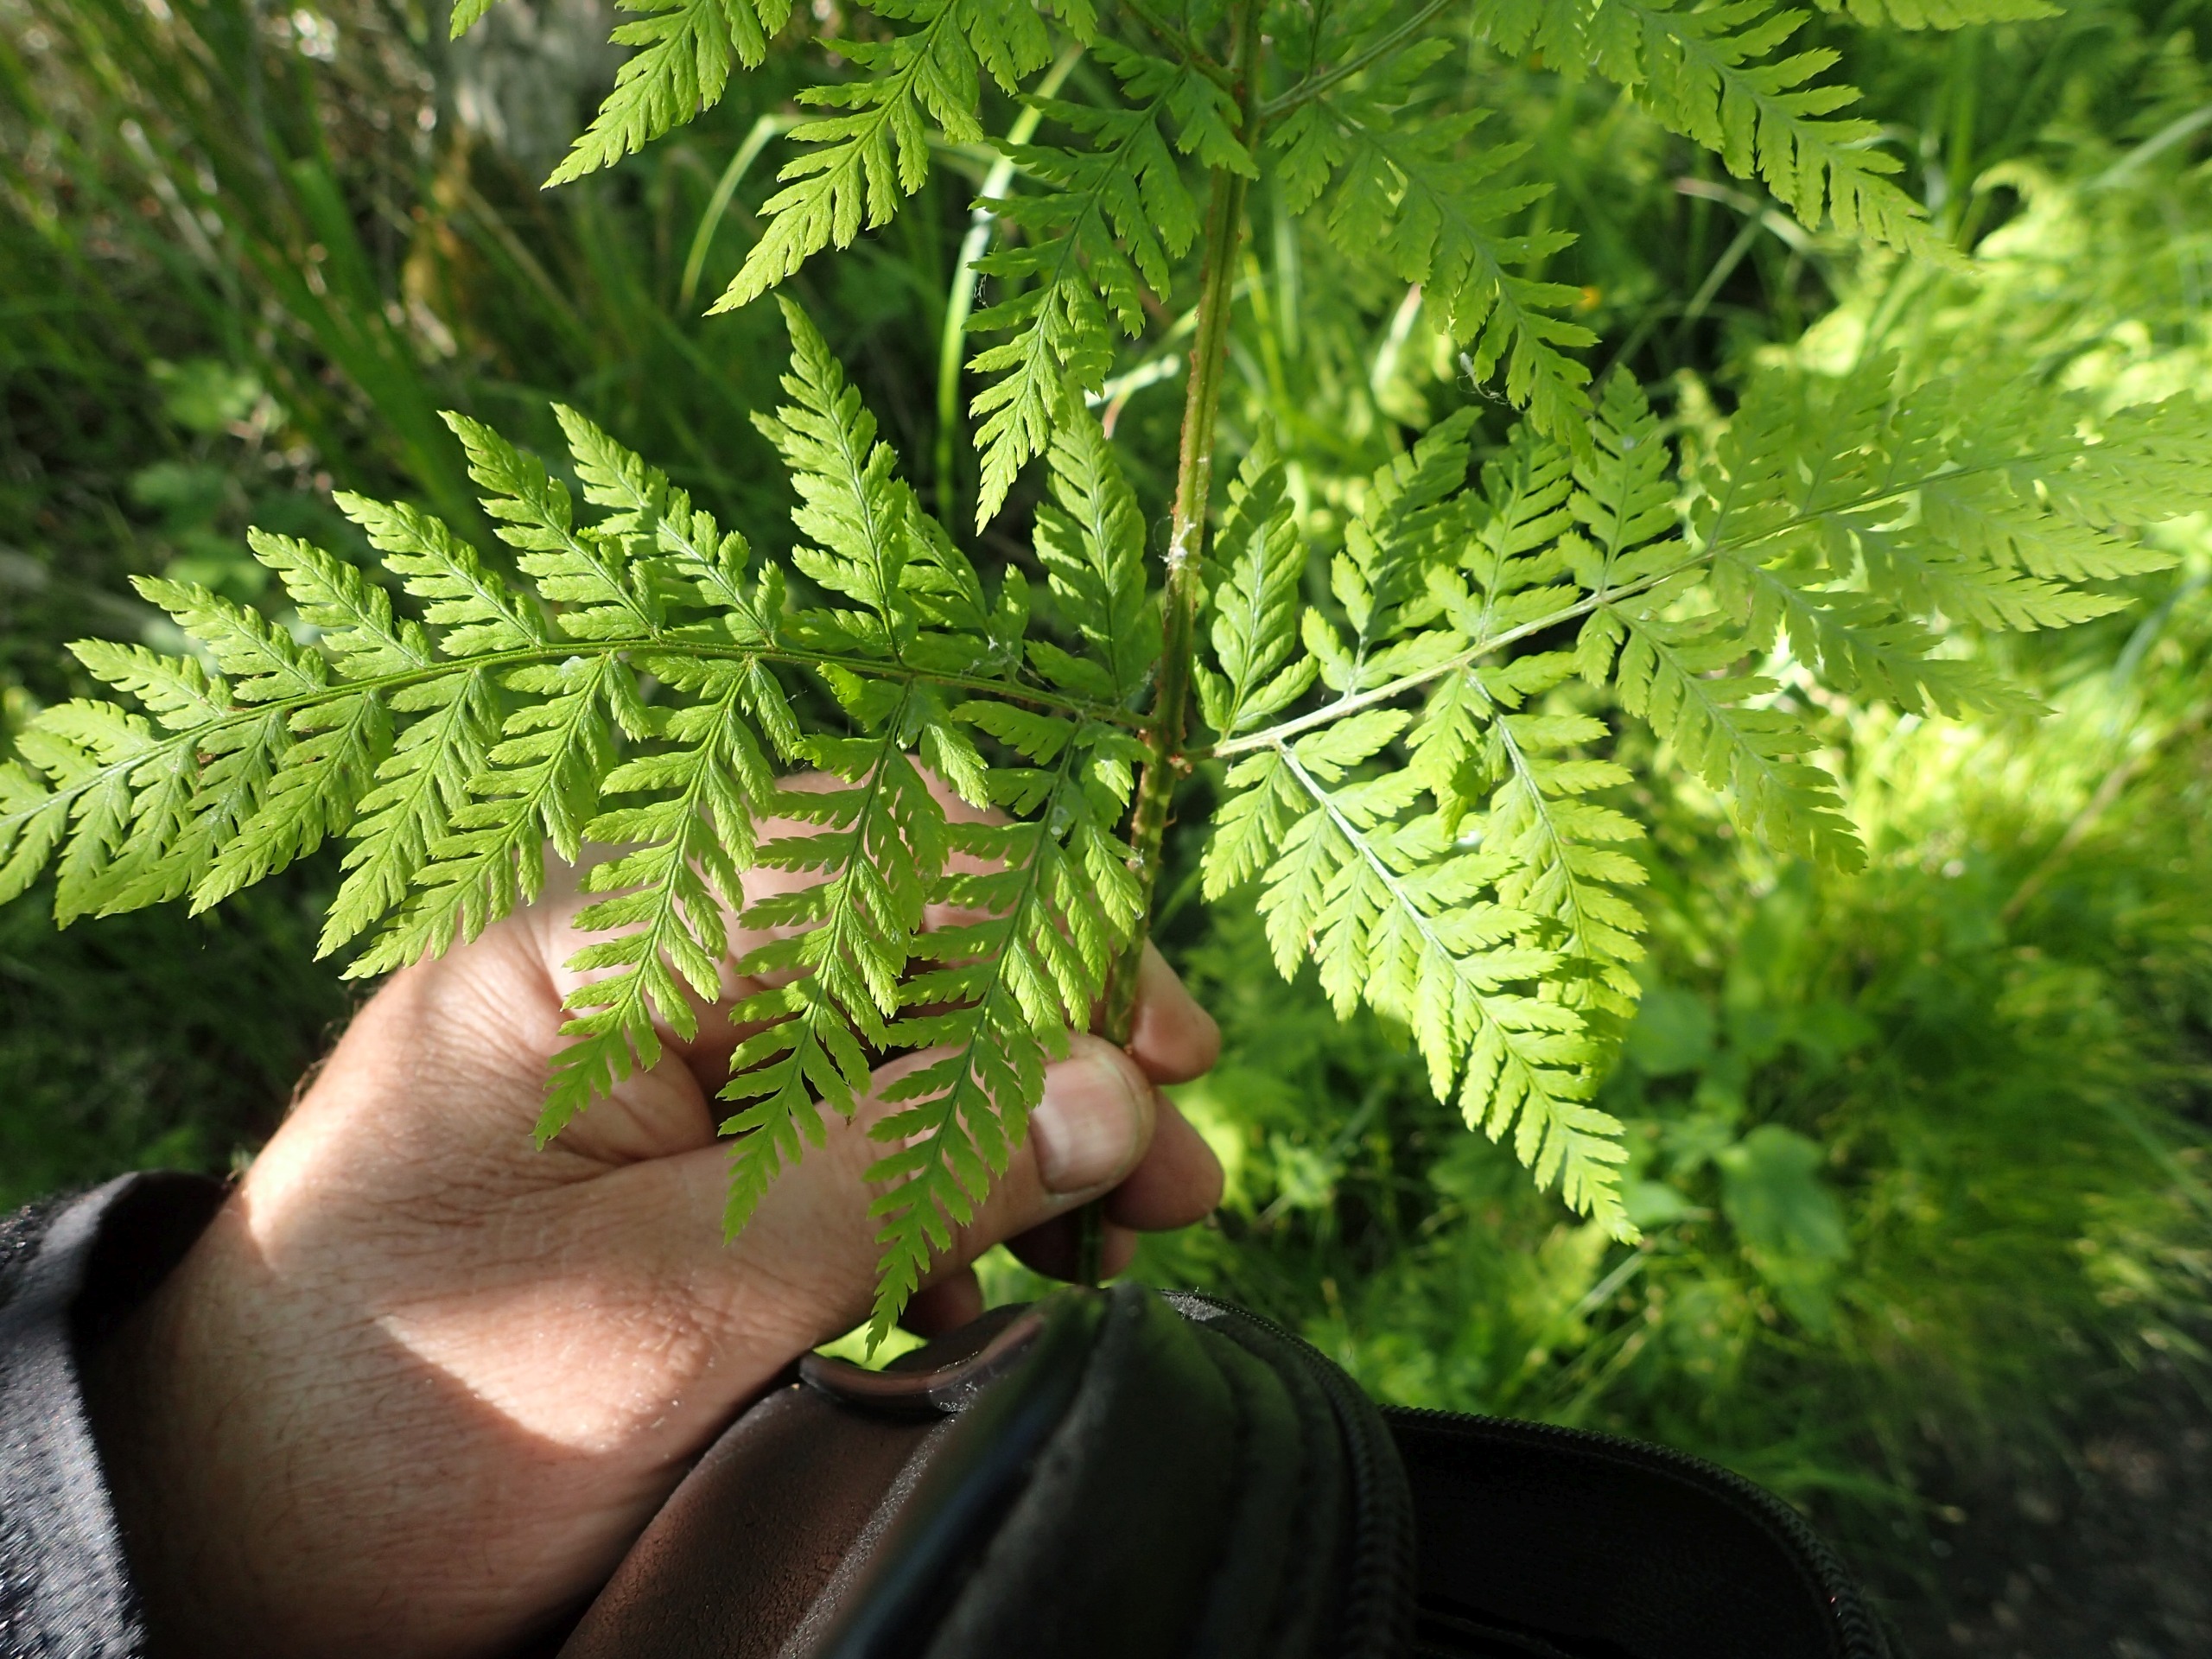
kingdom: Plantae
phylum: Tracheophyta
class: Polypodiopsida
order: Polypodiales
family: Dryopteridaceae
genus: Dryopteris
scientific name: Dryopteris expansa
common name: Finbladet mangeløv
